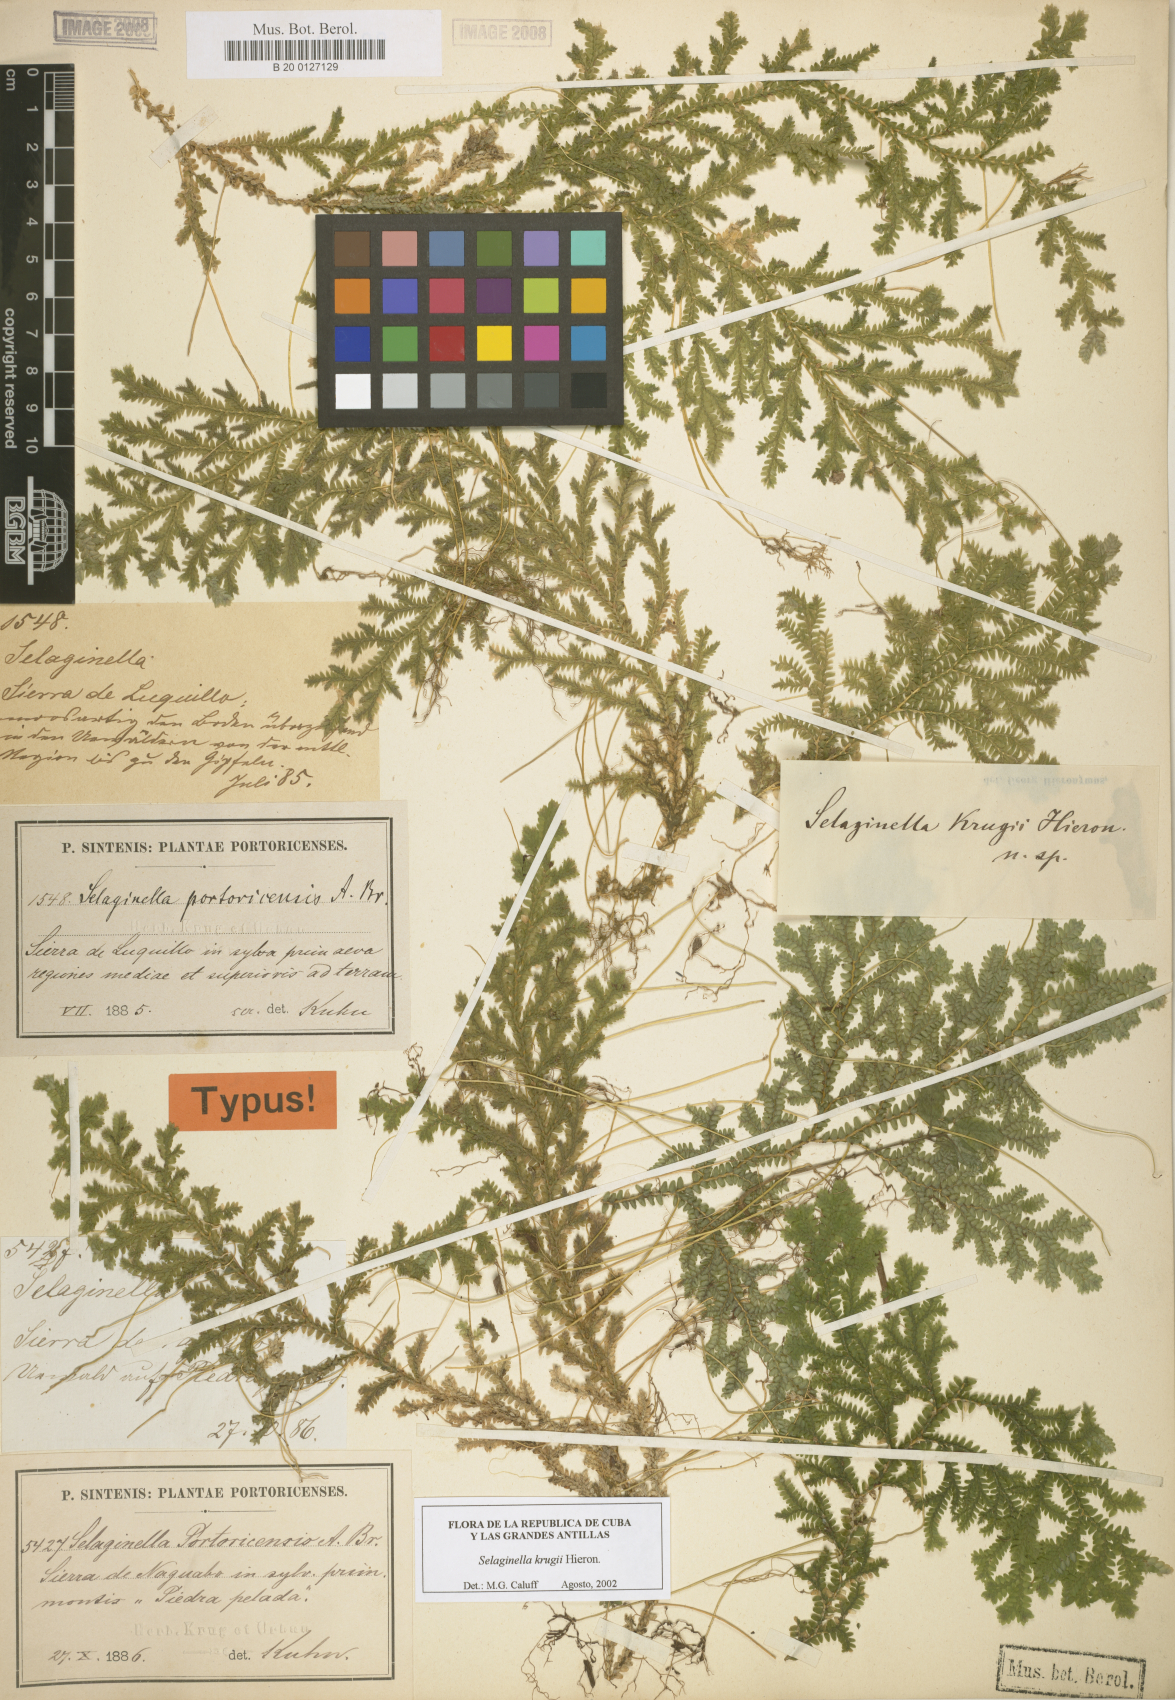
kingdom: Plantae
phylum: Tracheophyta
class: Lycopodiopsida
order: Selaginellales
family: Selaginellaceae
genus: Selaginella
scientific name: Selaginella krugii
